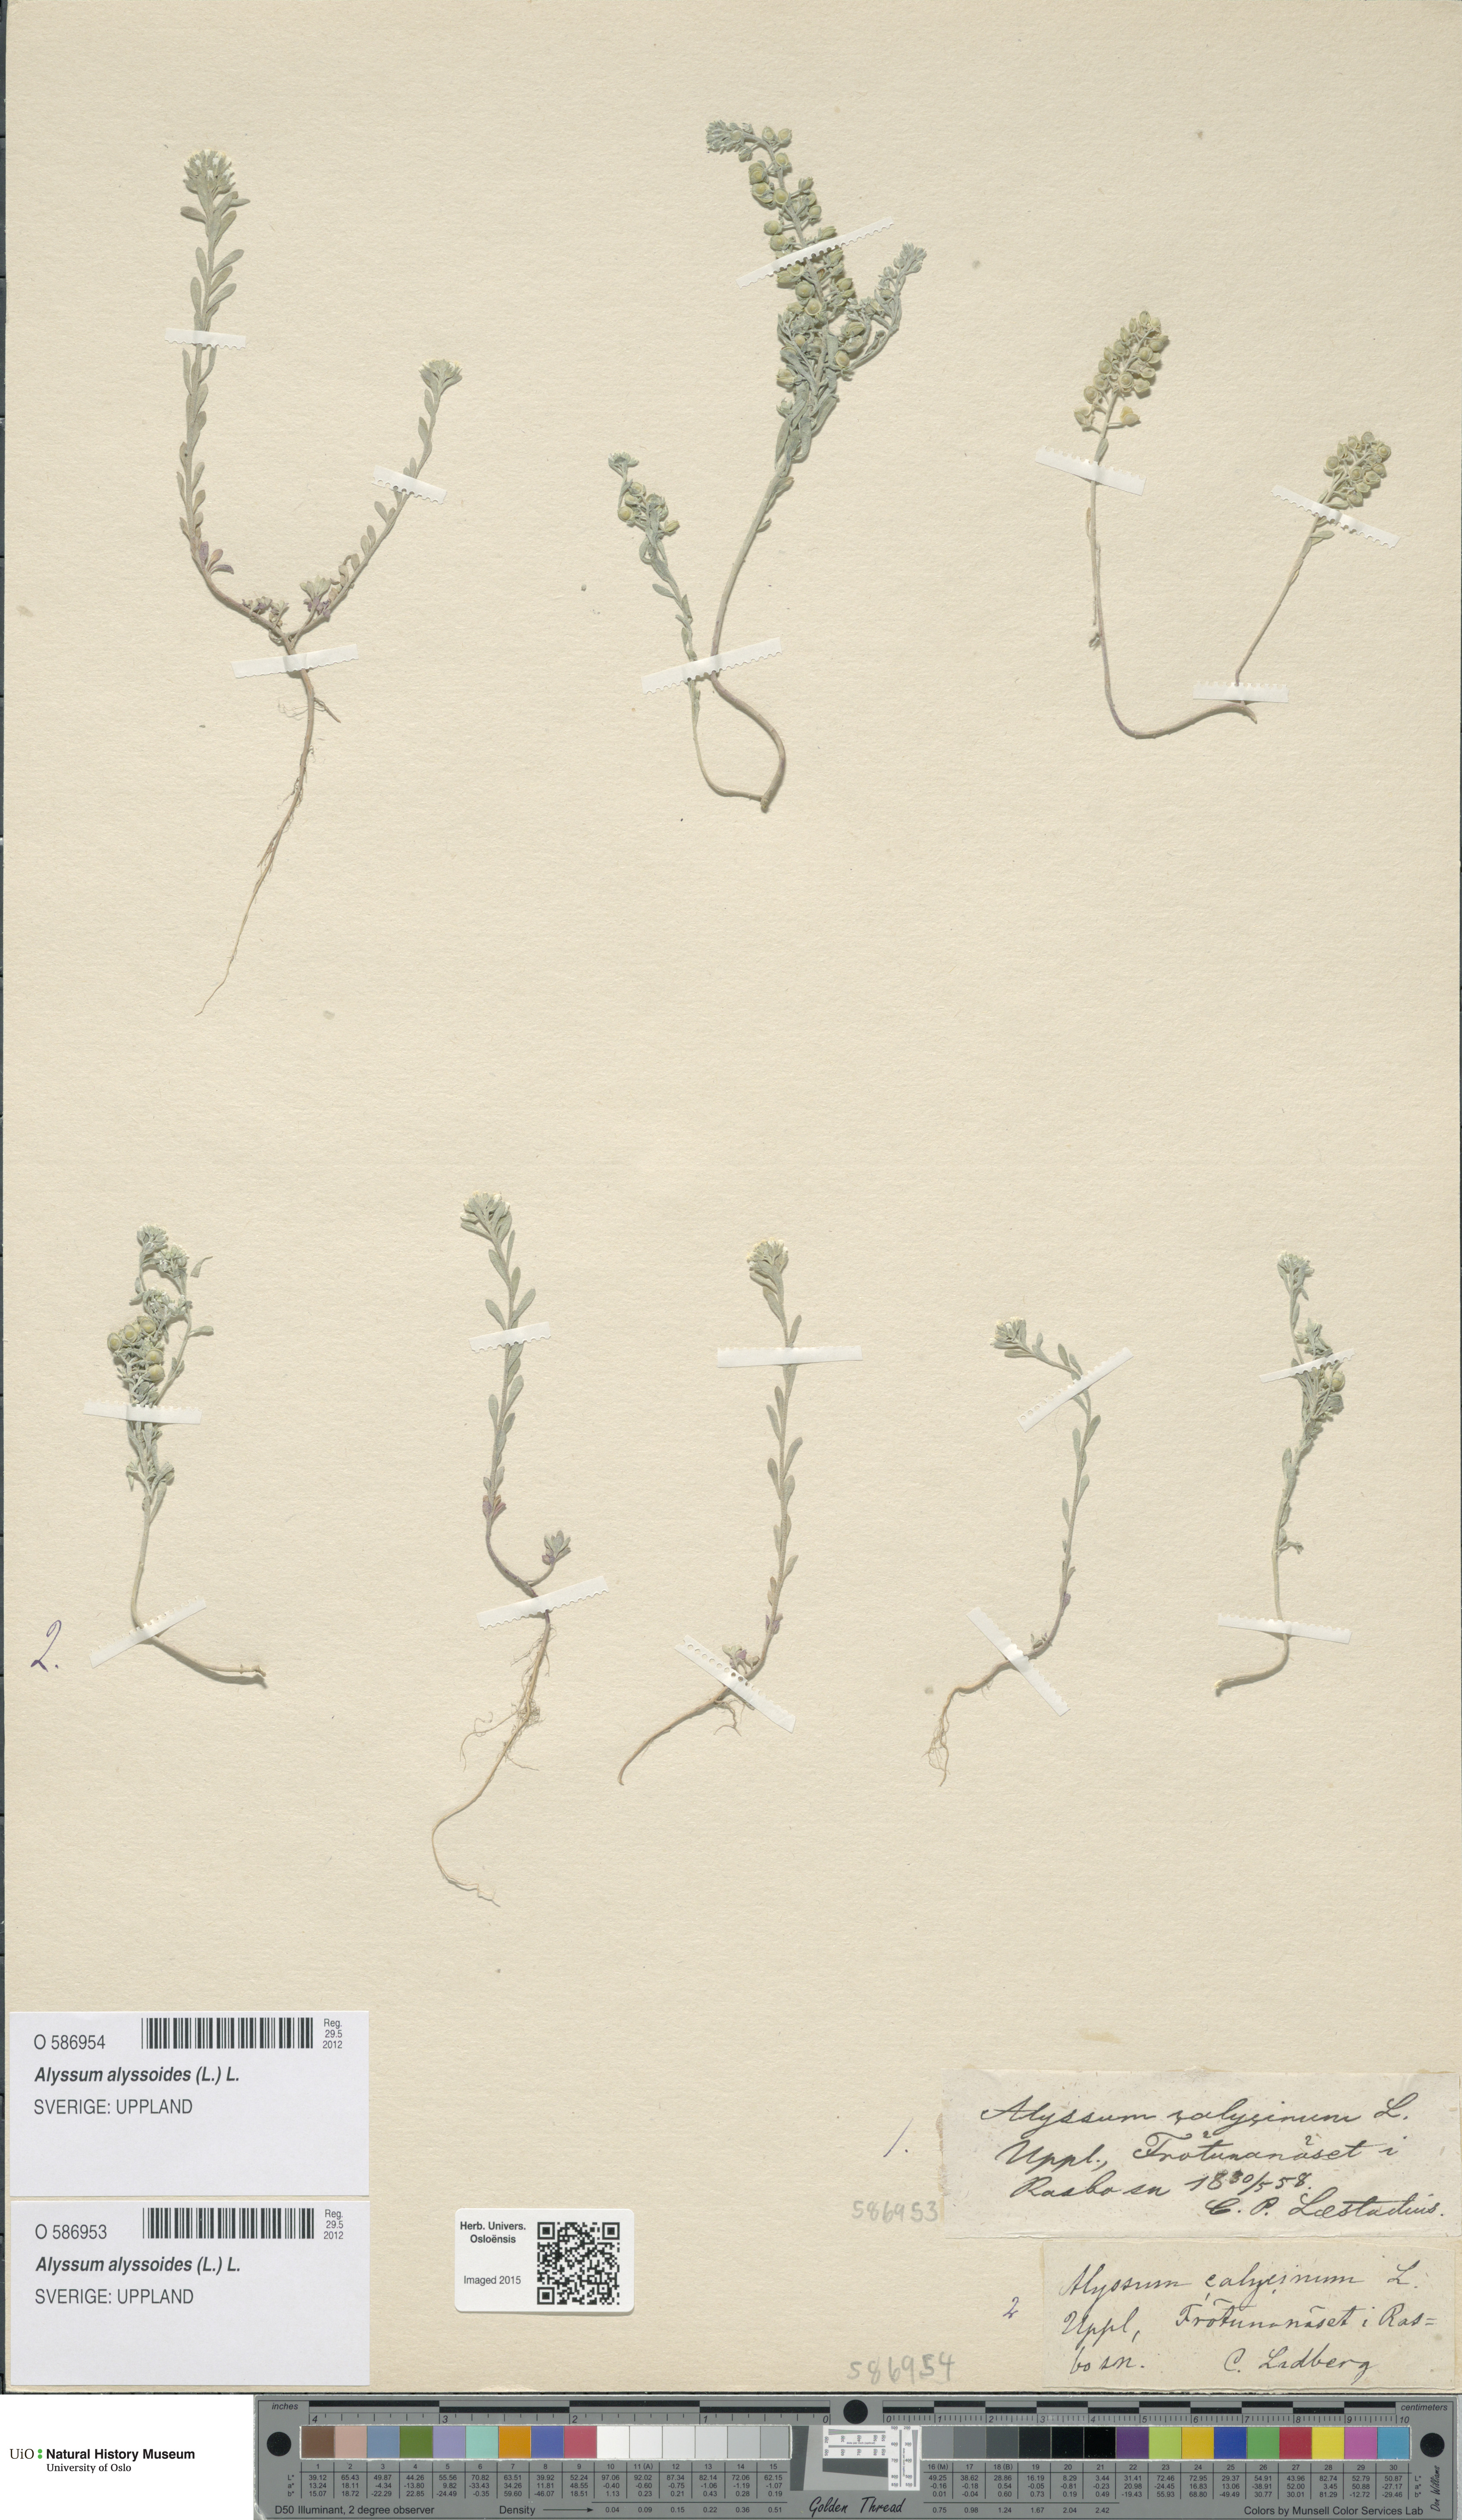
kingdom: Plantae
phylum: Tracheophyta
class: Magnoliopsida
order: Brassicales
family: Brassicaceae
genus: Alyssum
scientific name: Alyssum alyssoides
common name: Small alison
